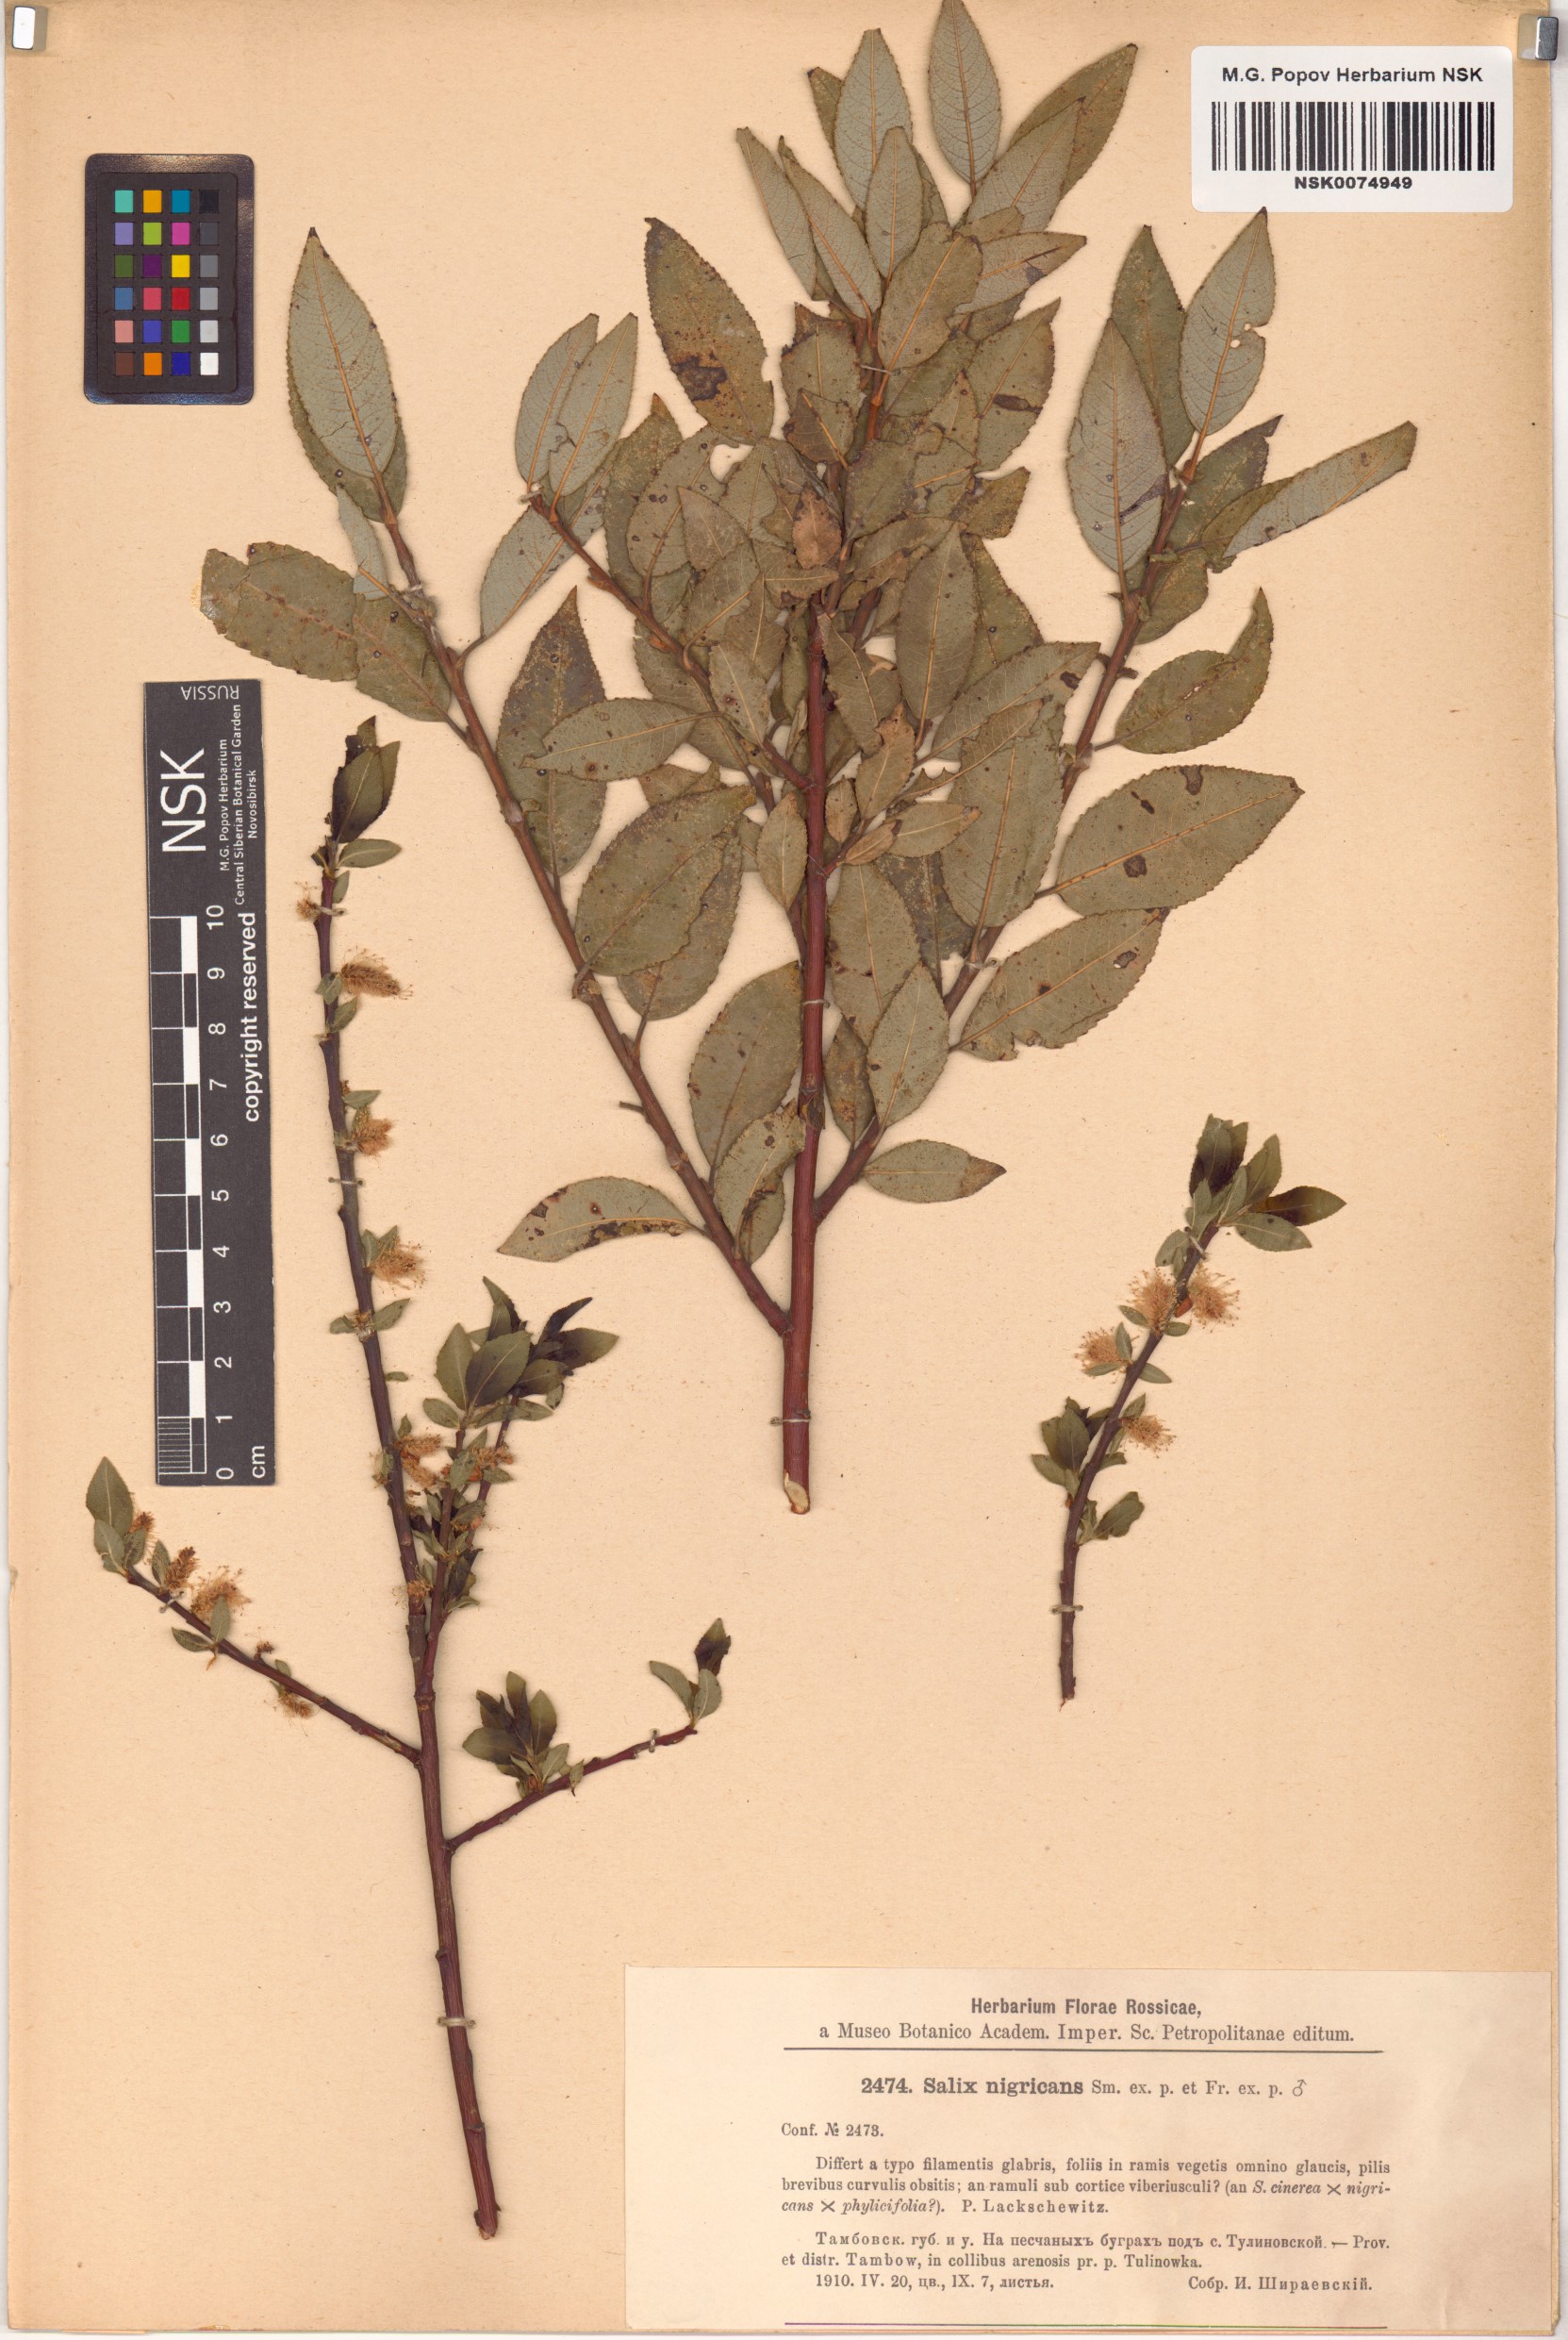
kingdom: Plantae
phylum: Tracheophyta
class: Magnoliopsida
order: Malpighiales
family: Salicaceae
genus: Salix
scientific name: Salix myrsinifolia
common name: Dark-leaved willow
